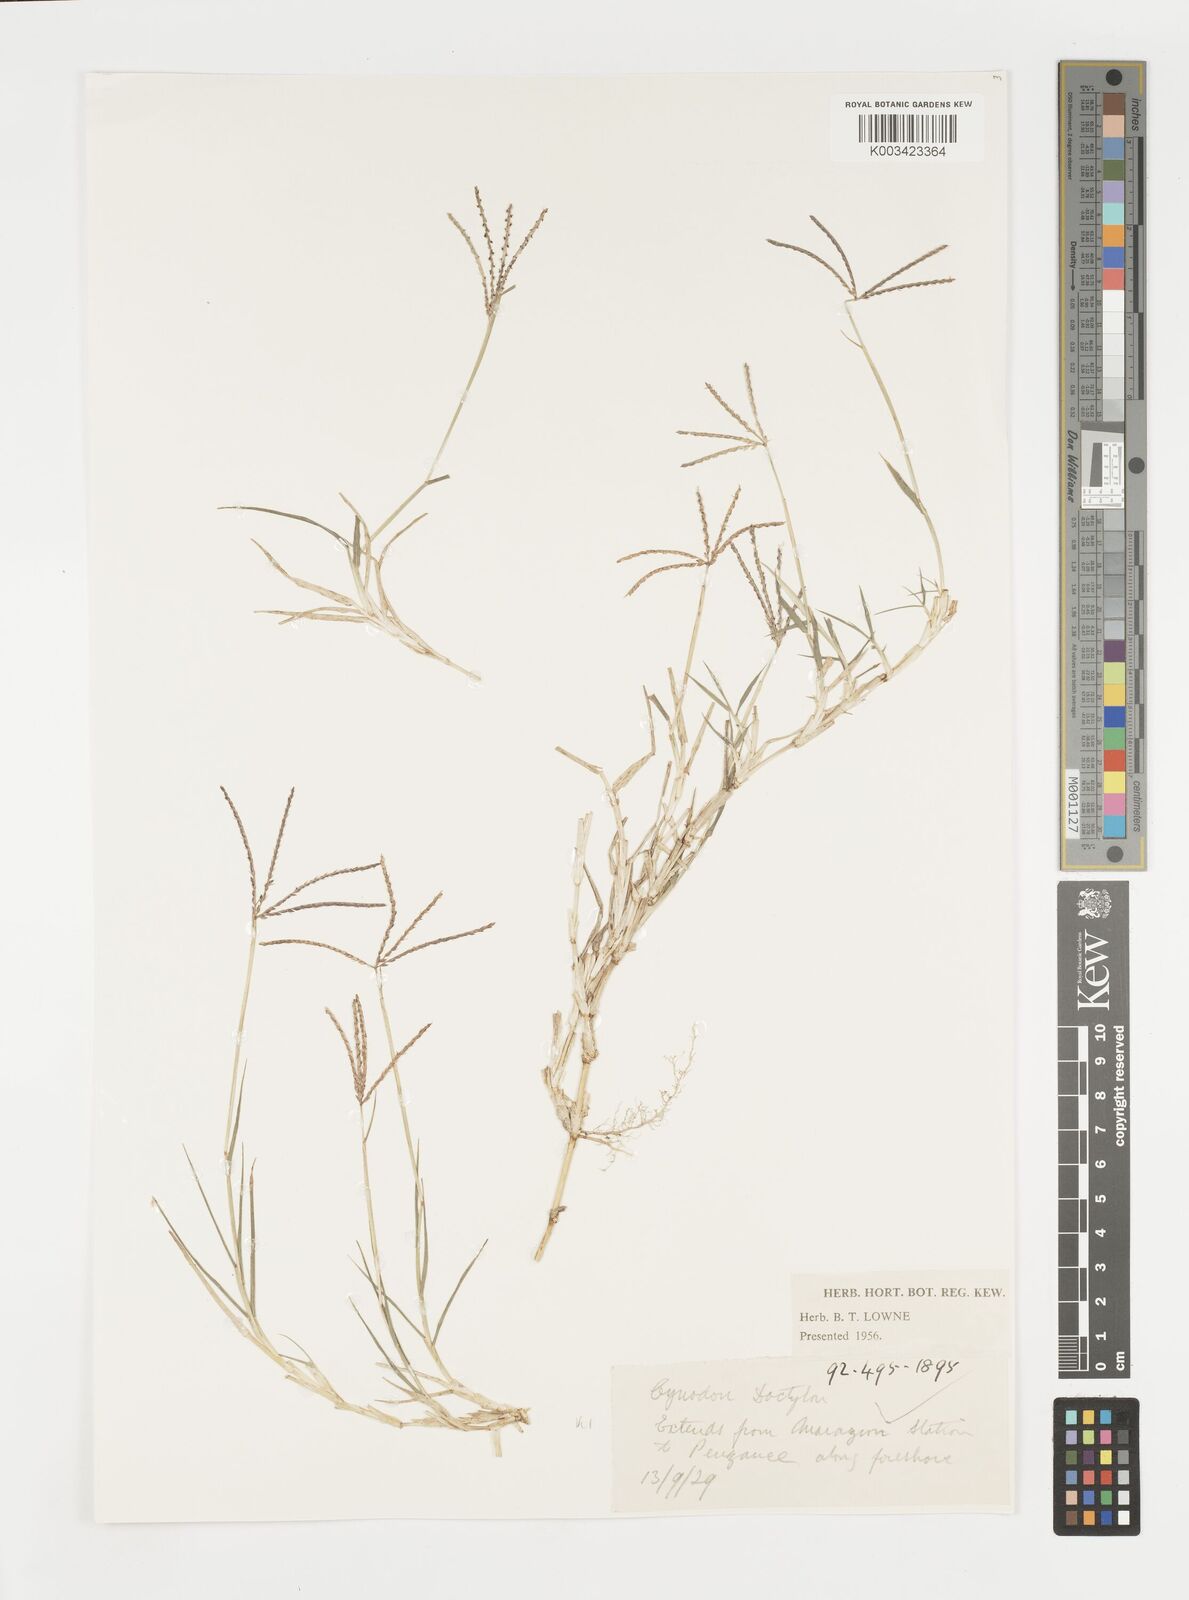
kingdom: Plantae
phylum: Tracheophyta
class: Liliopsida
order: Poales
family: Poaceae
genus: Cynodon
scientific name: Cynodon dactylon
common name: Bermuda grass
